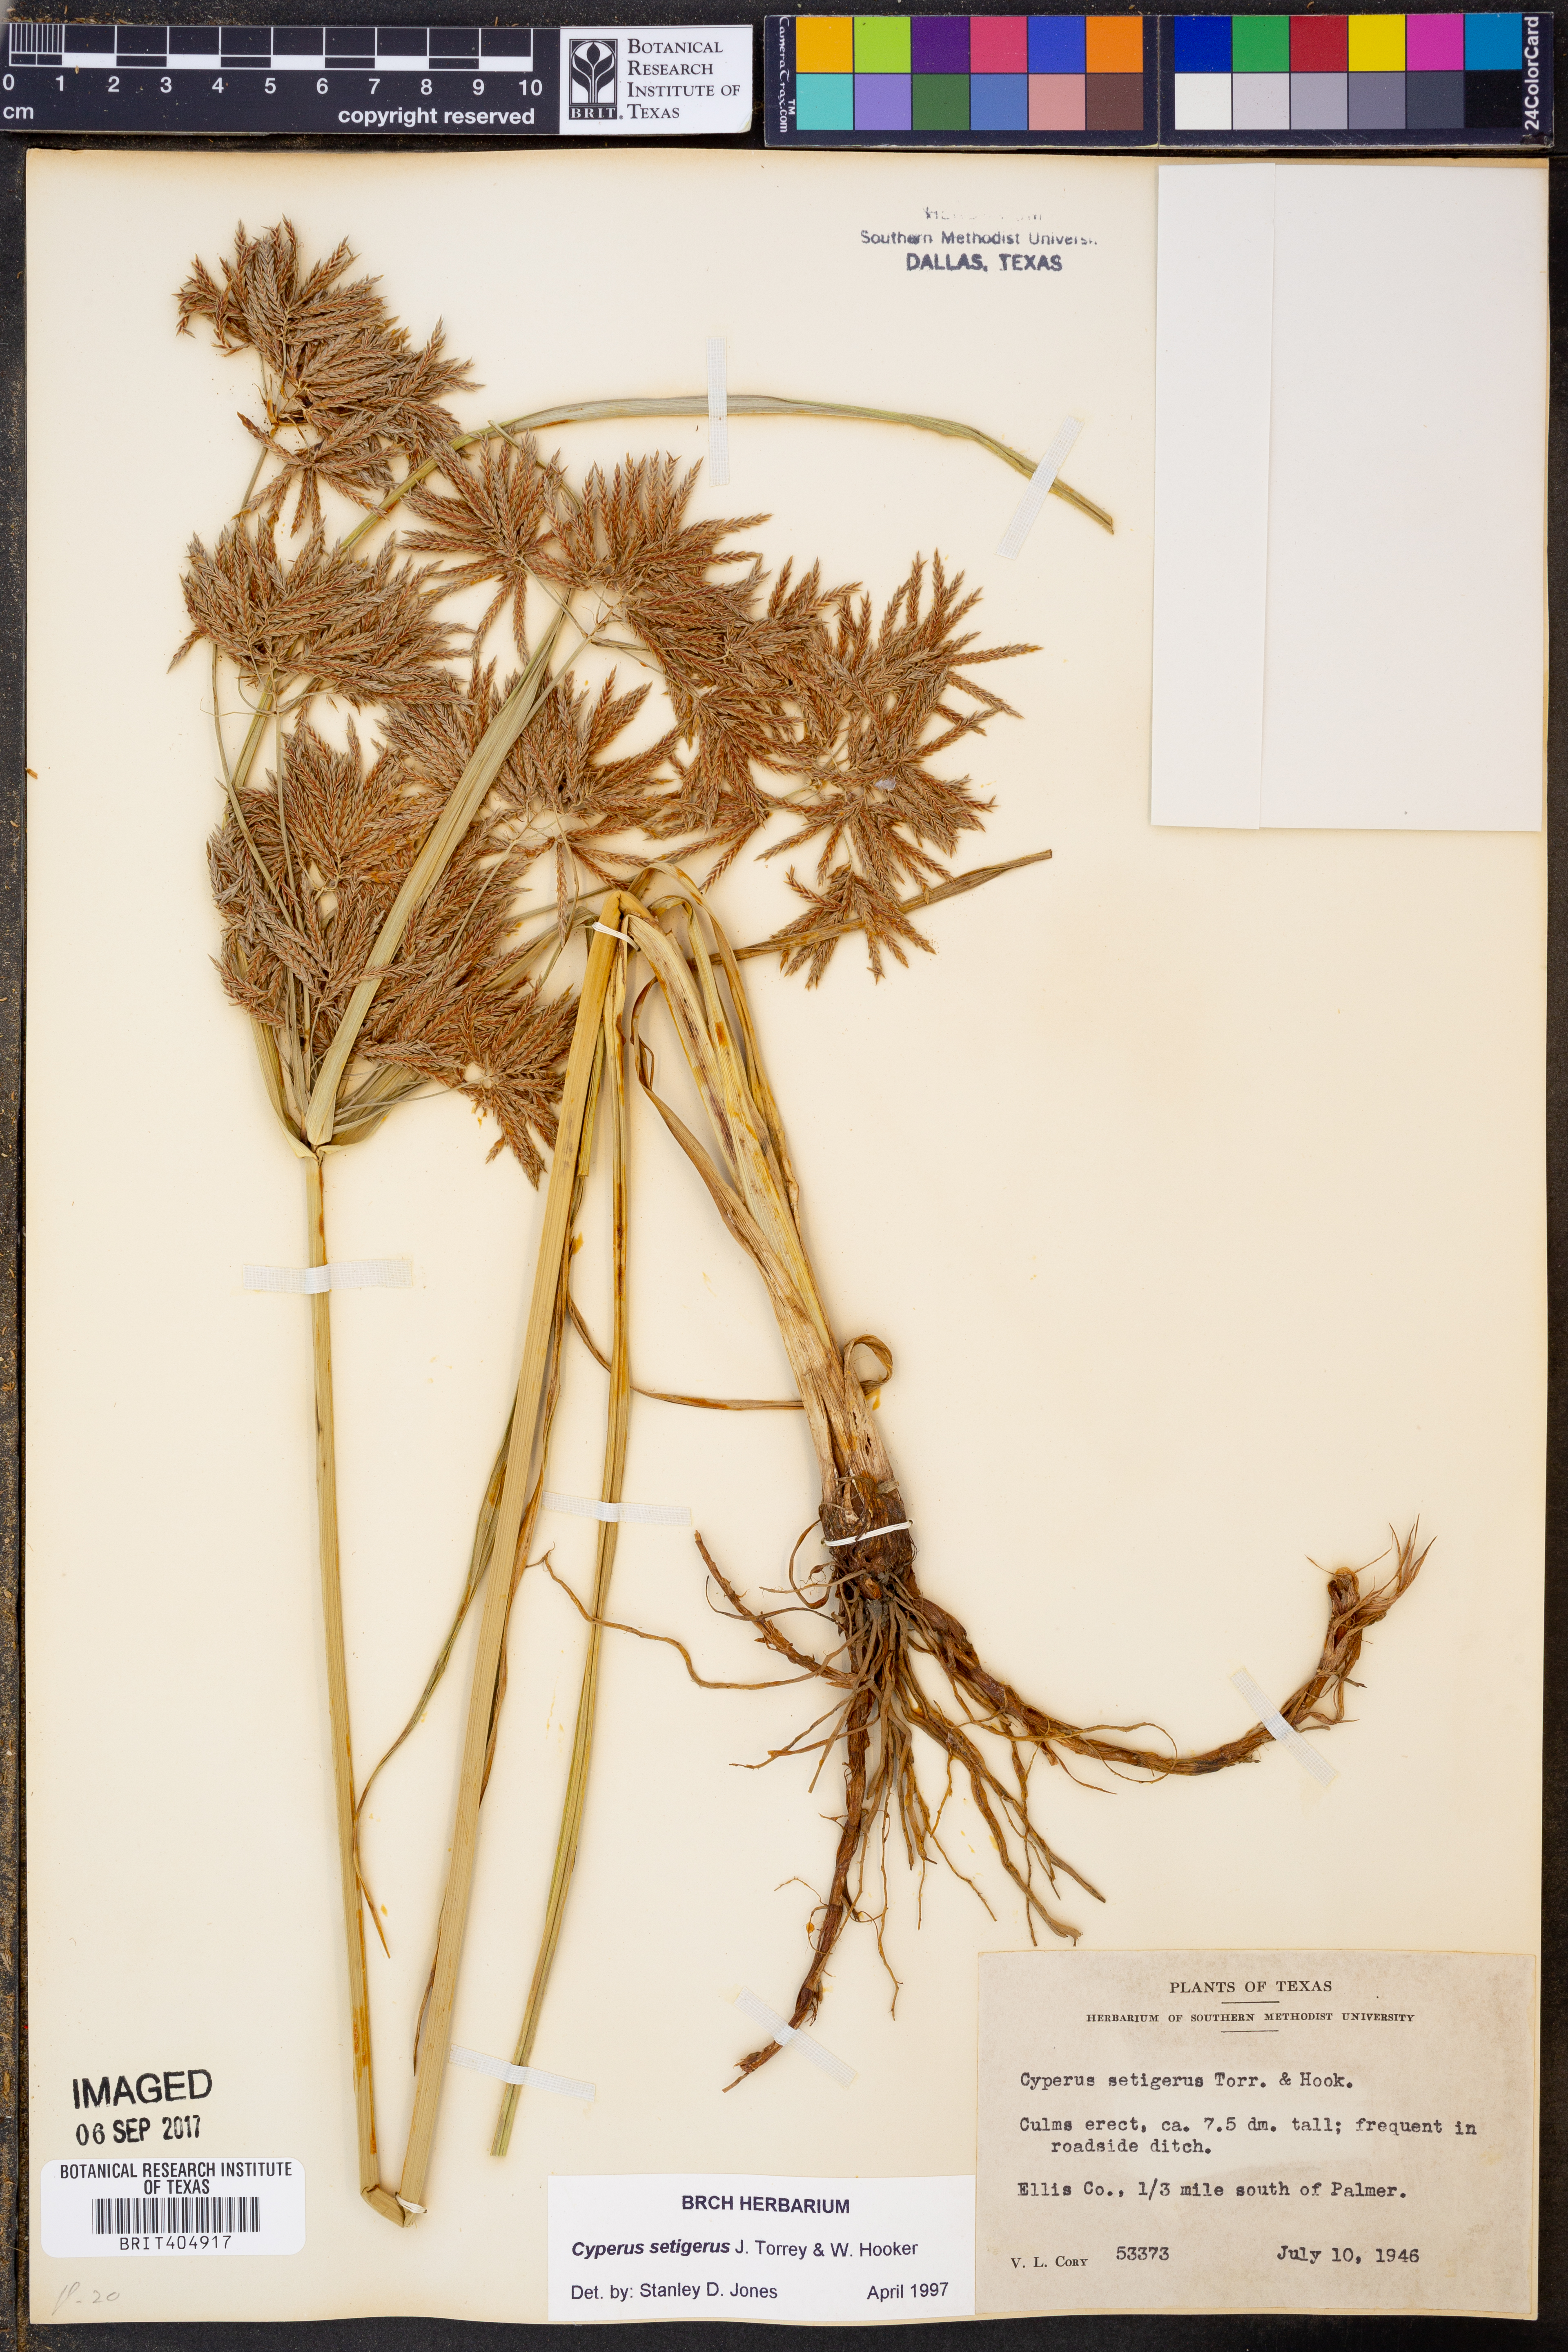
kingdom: Plantae
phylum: Tracheophyta
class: Liliopsida
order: Poales
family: Cyperaceae
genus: Cyperus
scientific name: Cyperus setigerus
